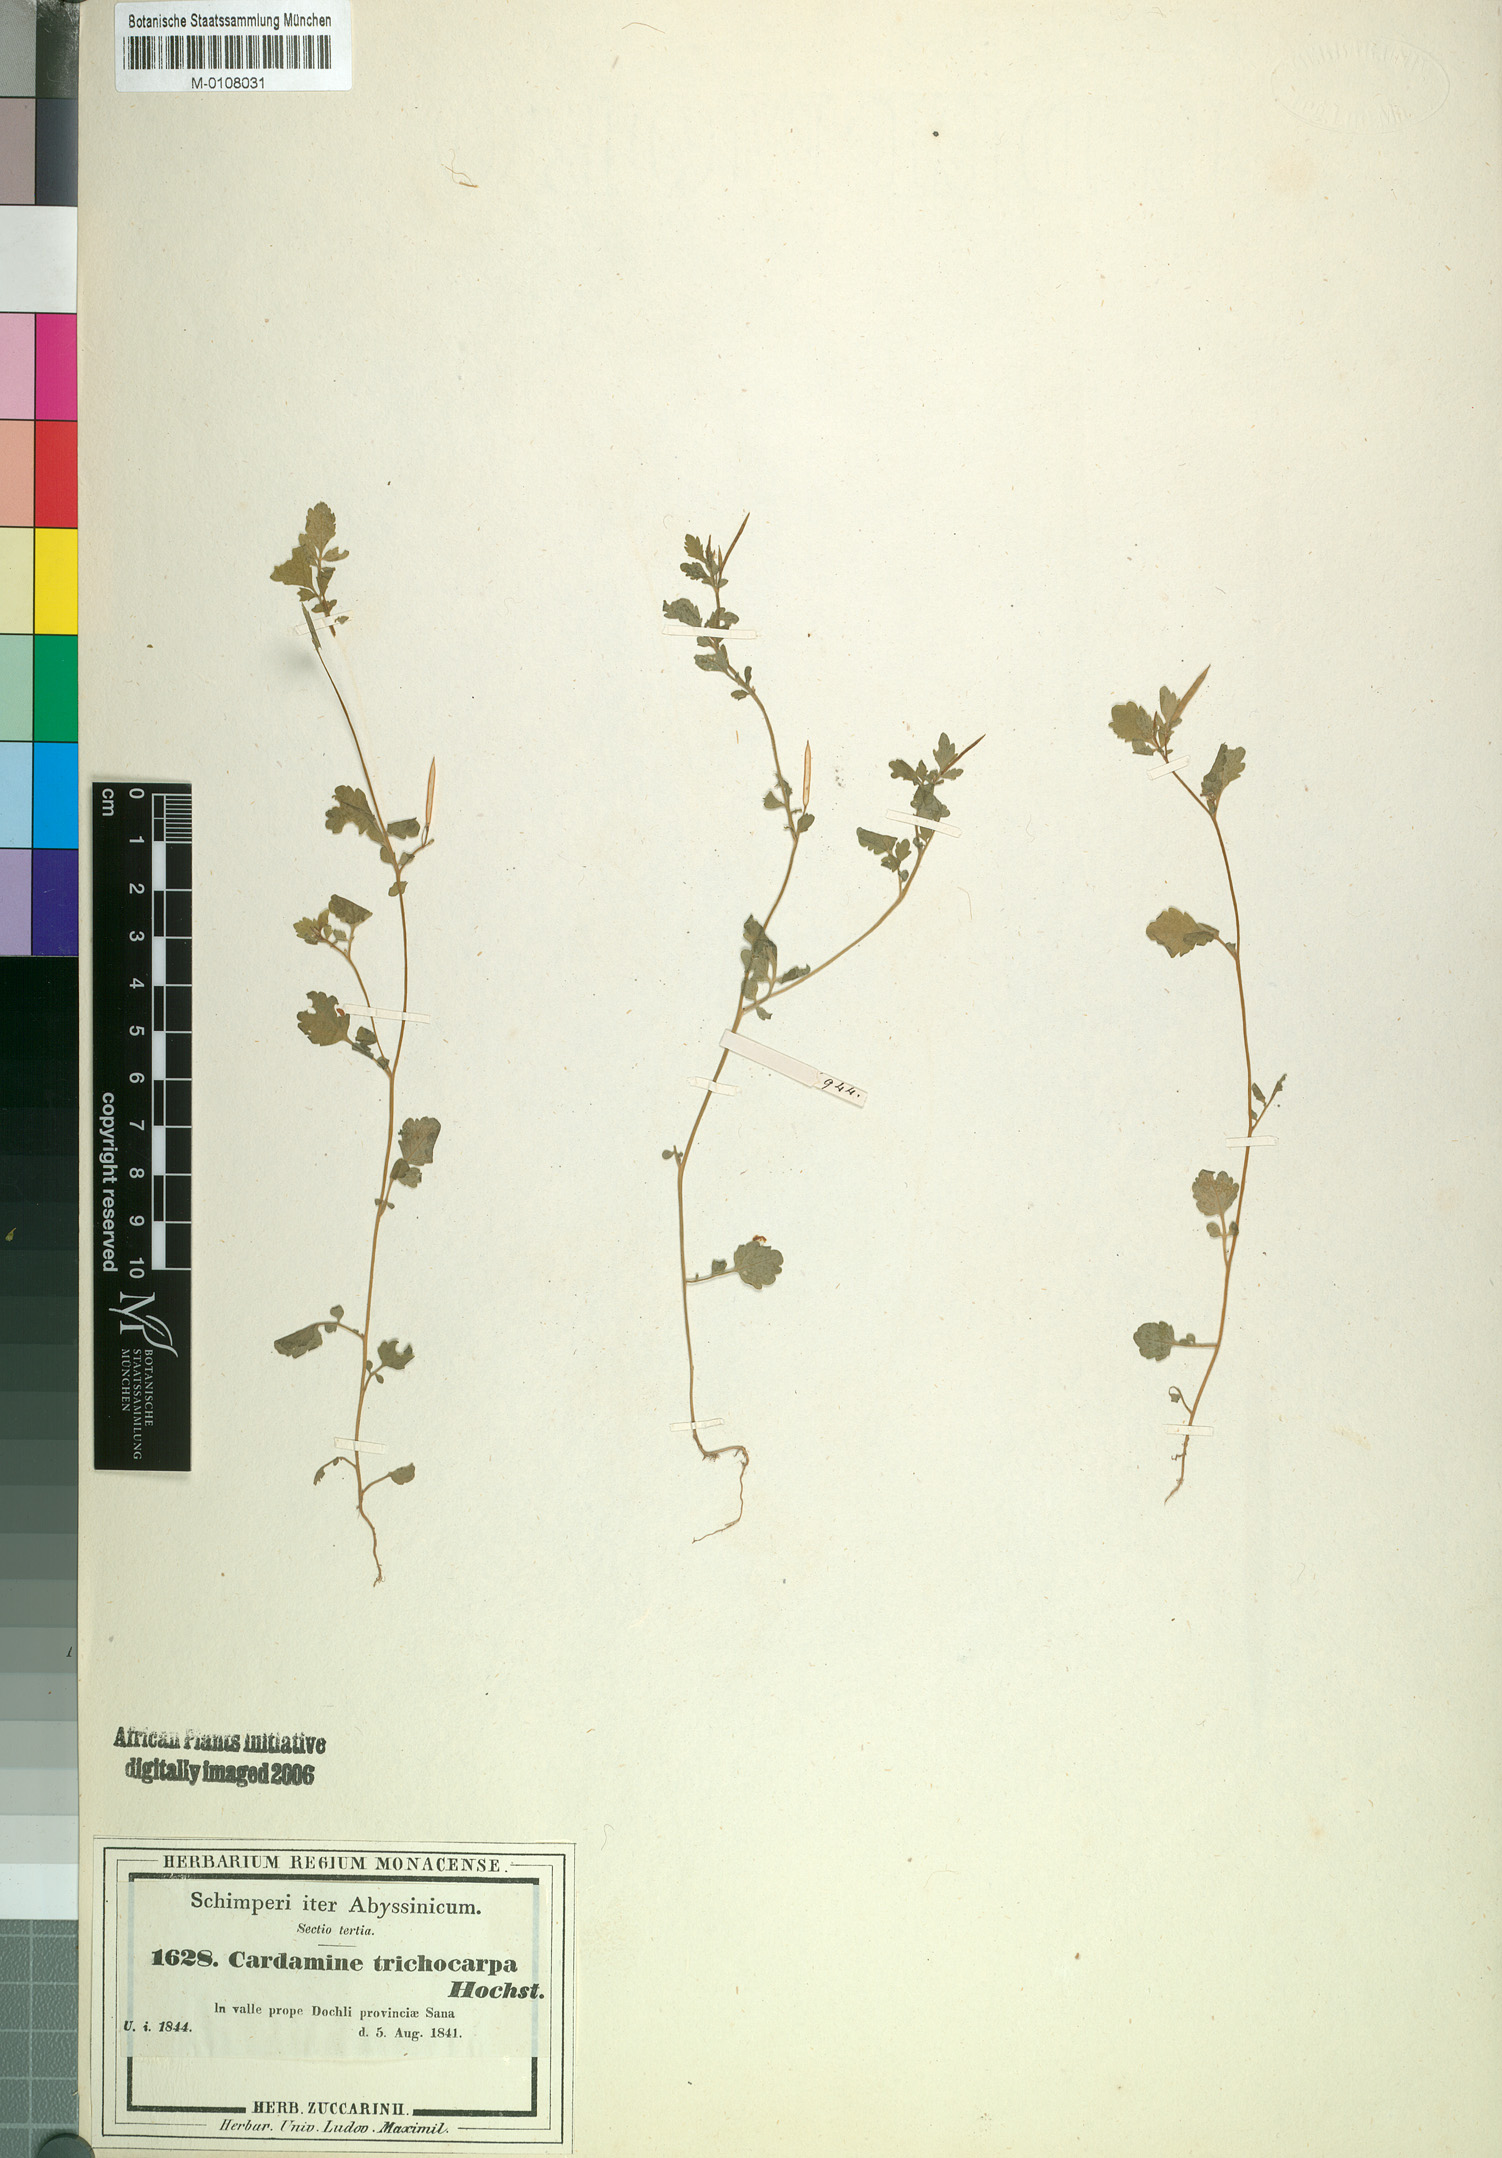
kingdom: Plantae
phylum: Tracheophyta
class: Magnoliopsida
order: Brassicales
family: Brassicaceae
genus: Cardamine
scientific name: Cardamine trichocarpa
